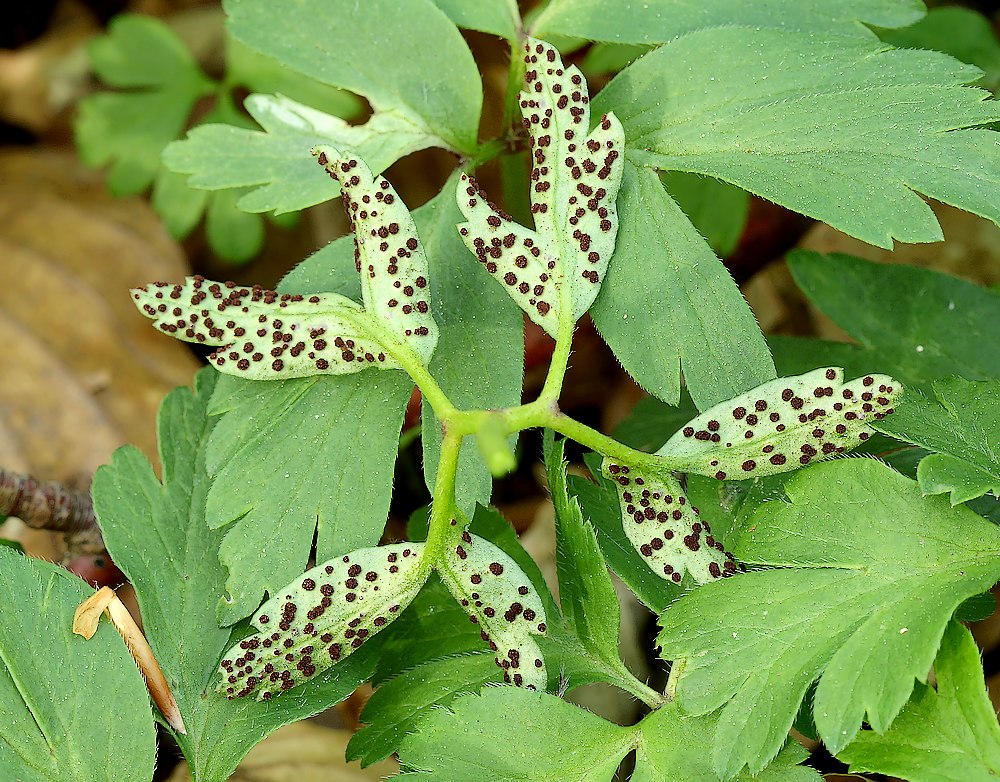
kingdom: Fungi
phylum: Basidiomycota
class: Pucciniomycetes
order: Pucciniales
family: Tranzscheliaceae
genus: Tranzschelia
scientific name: Tranzschelia anemones
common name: anemone-knæksporerust
